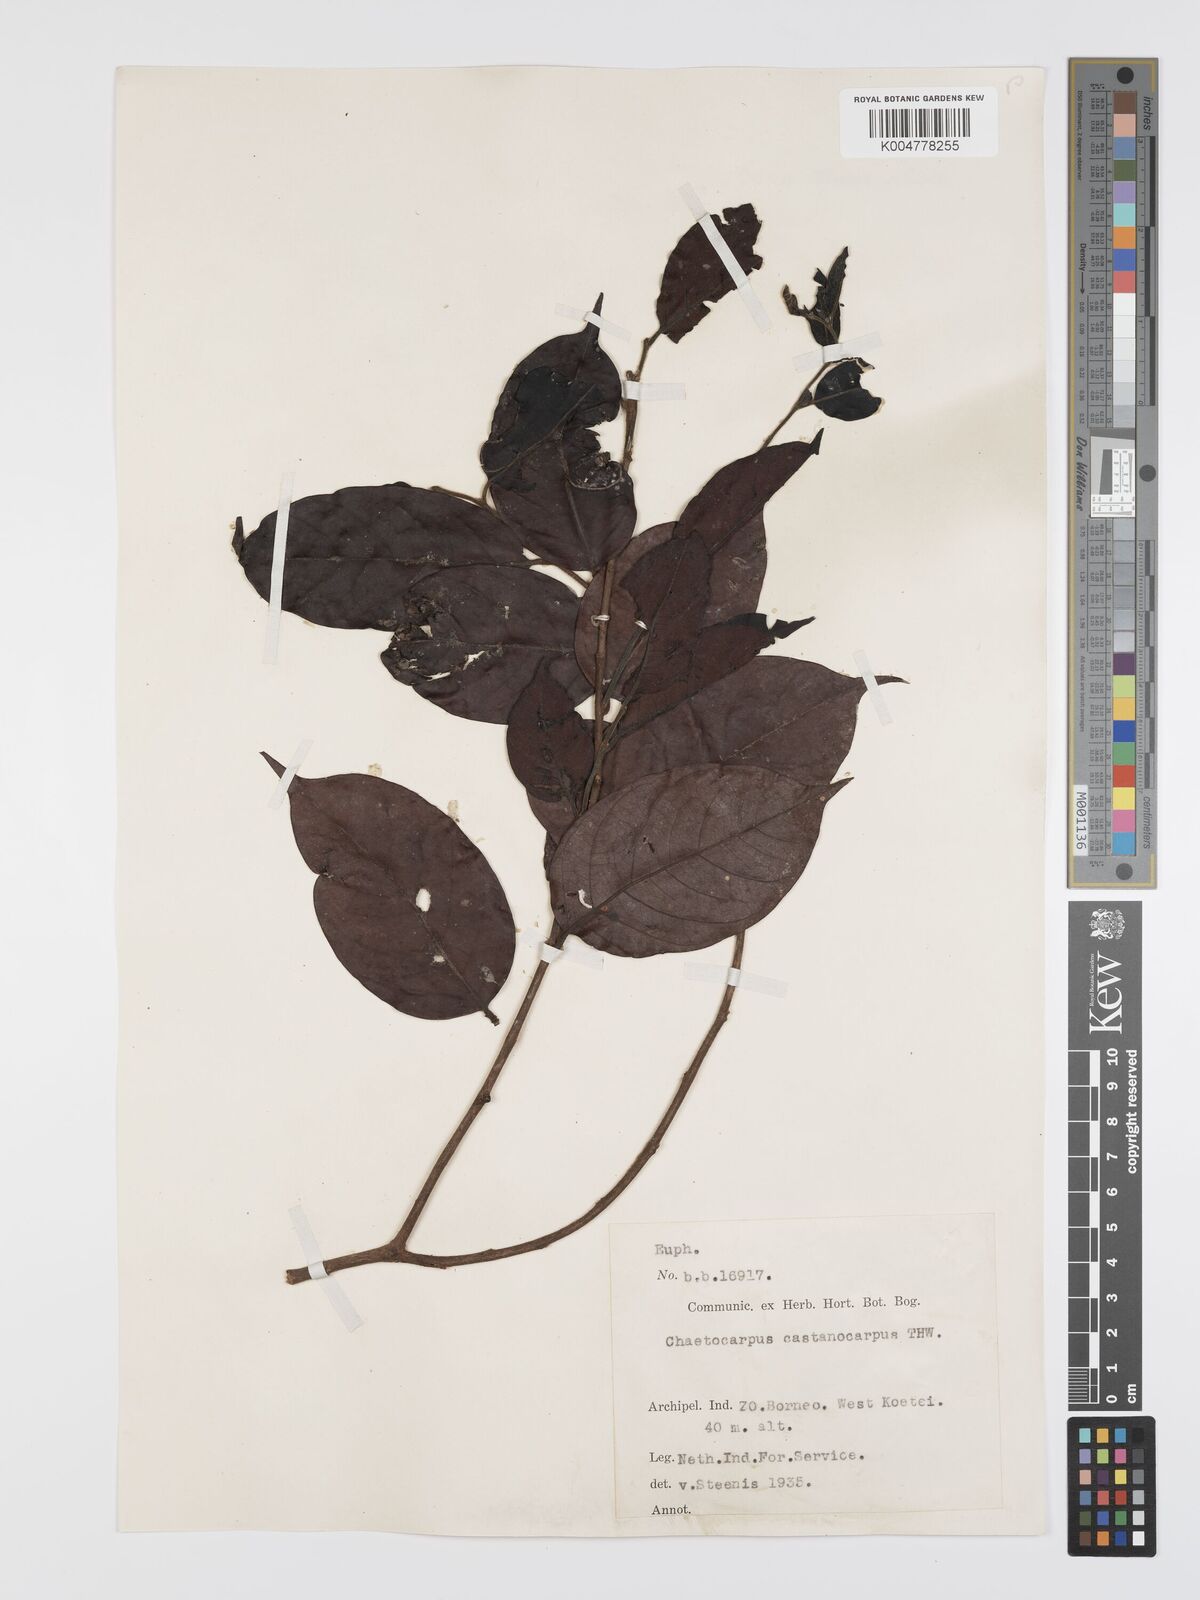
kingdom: Plantae
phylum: Tracheophyta
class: Magnoliopsida
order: Malpighiales
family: Peraceae
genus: Chaetocarpus
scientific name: Chaetocarpus castanocarpus
